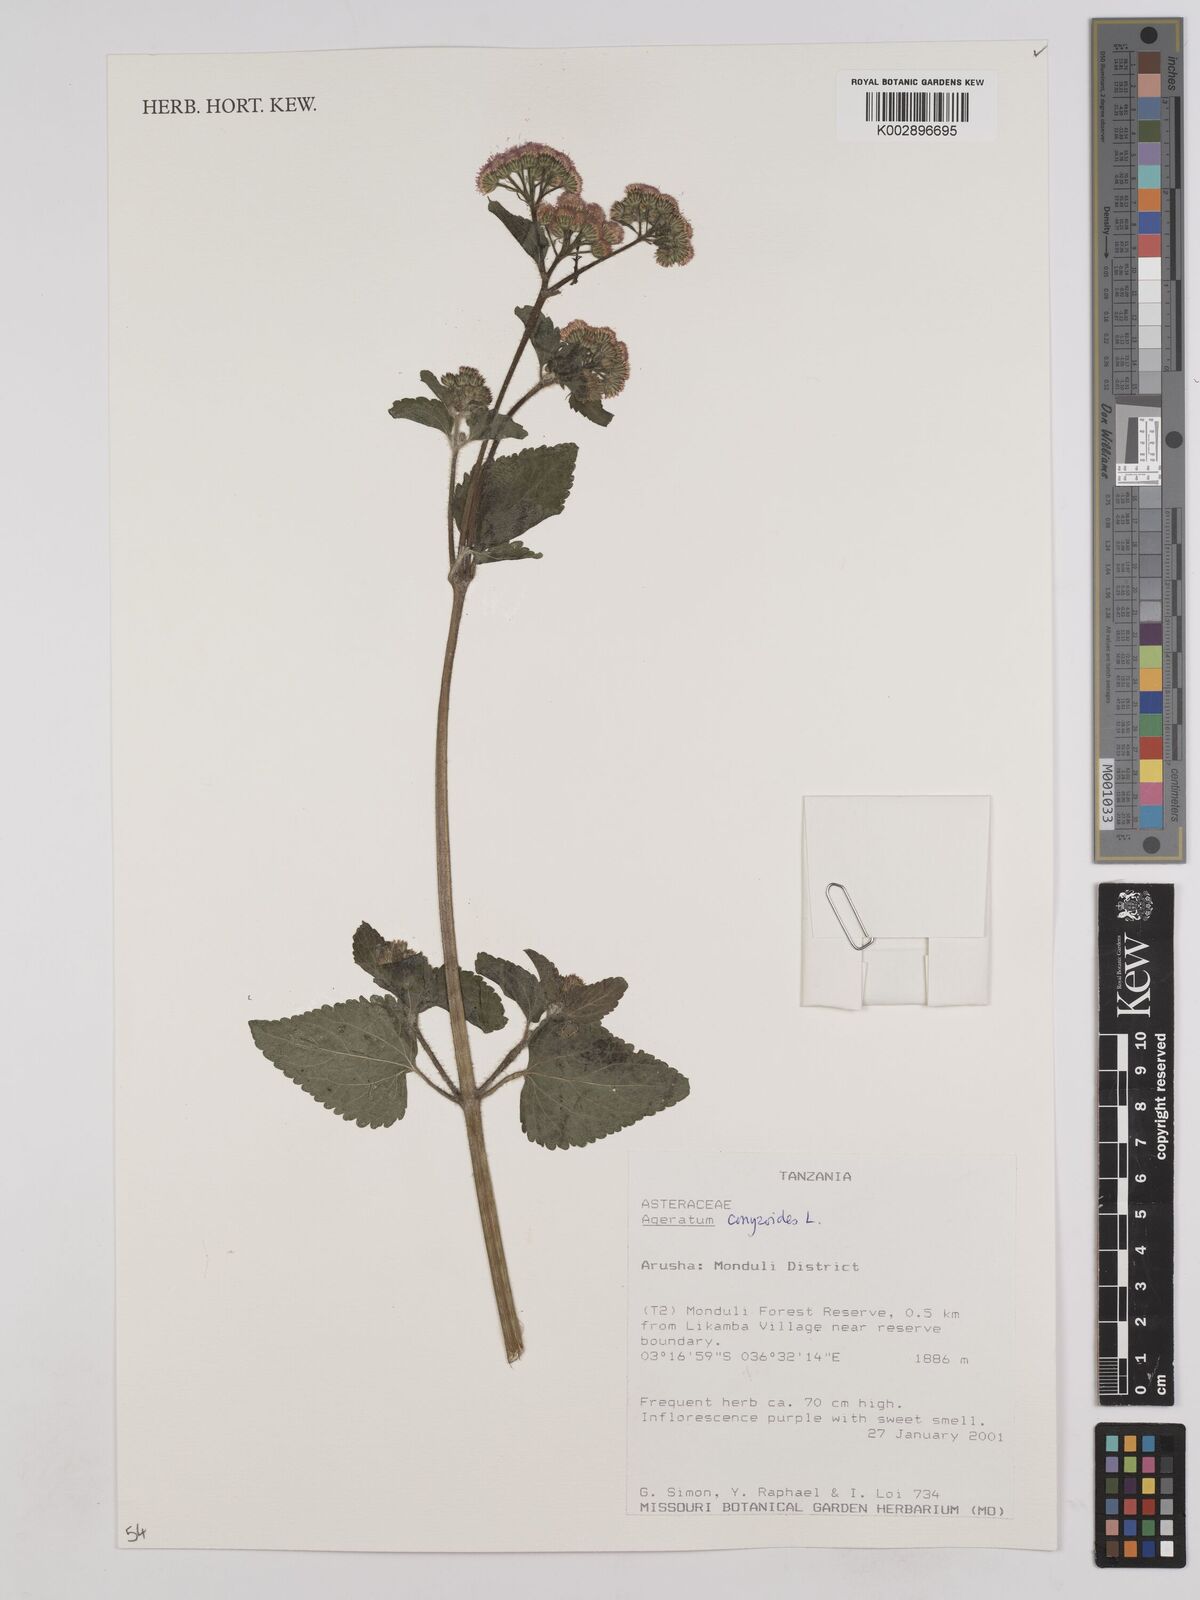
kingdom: Plantae
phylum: Tracheophyta
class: Magnoliopsida
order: Asterales
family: Asteraceae
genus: Ageratum
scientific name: Ageratum conyzoides
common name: Tropical whiteweed
